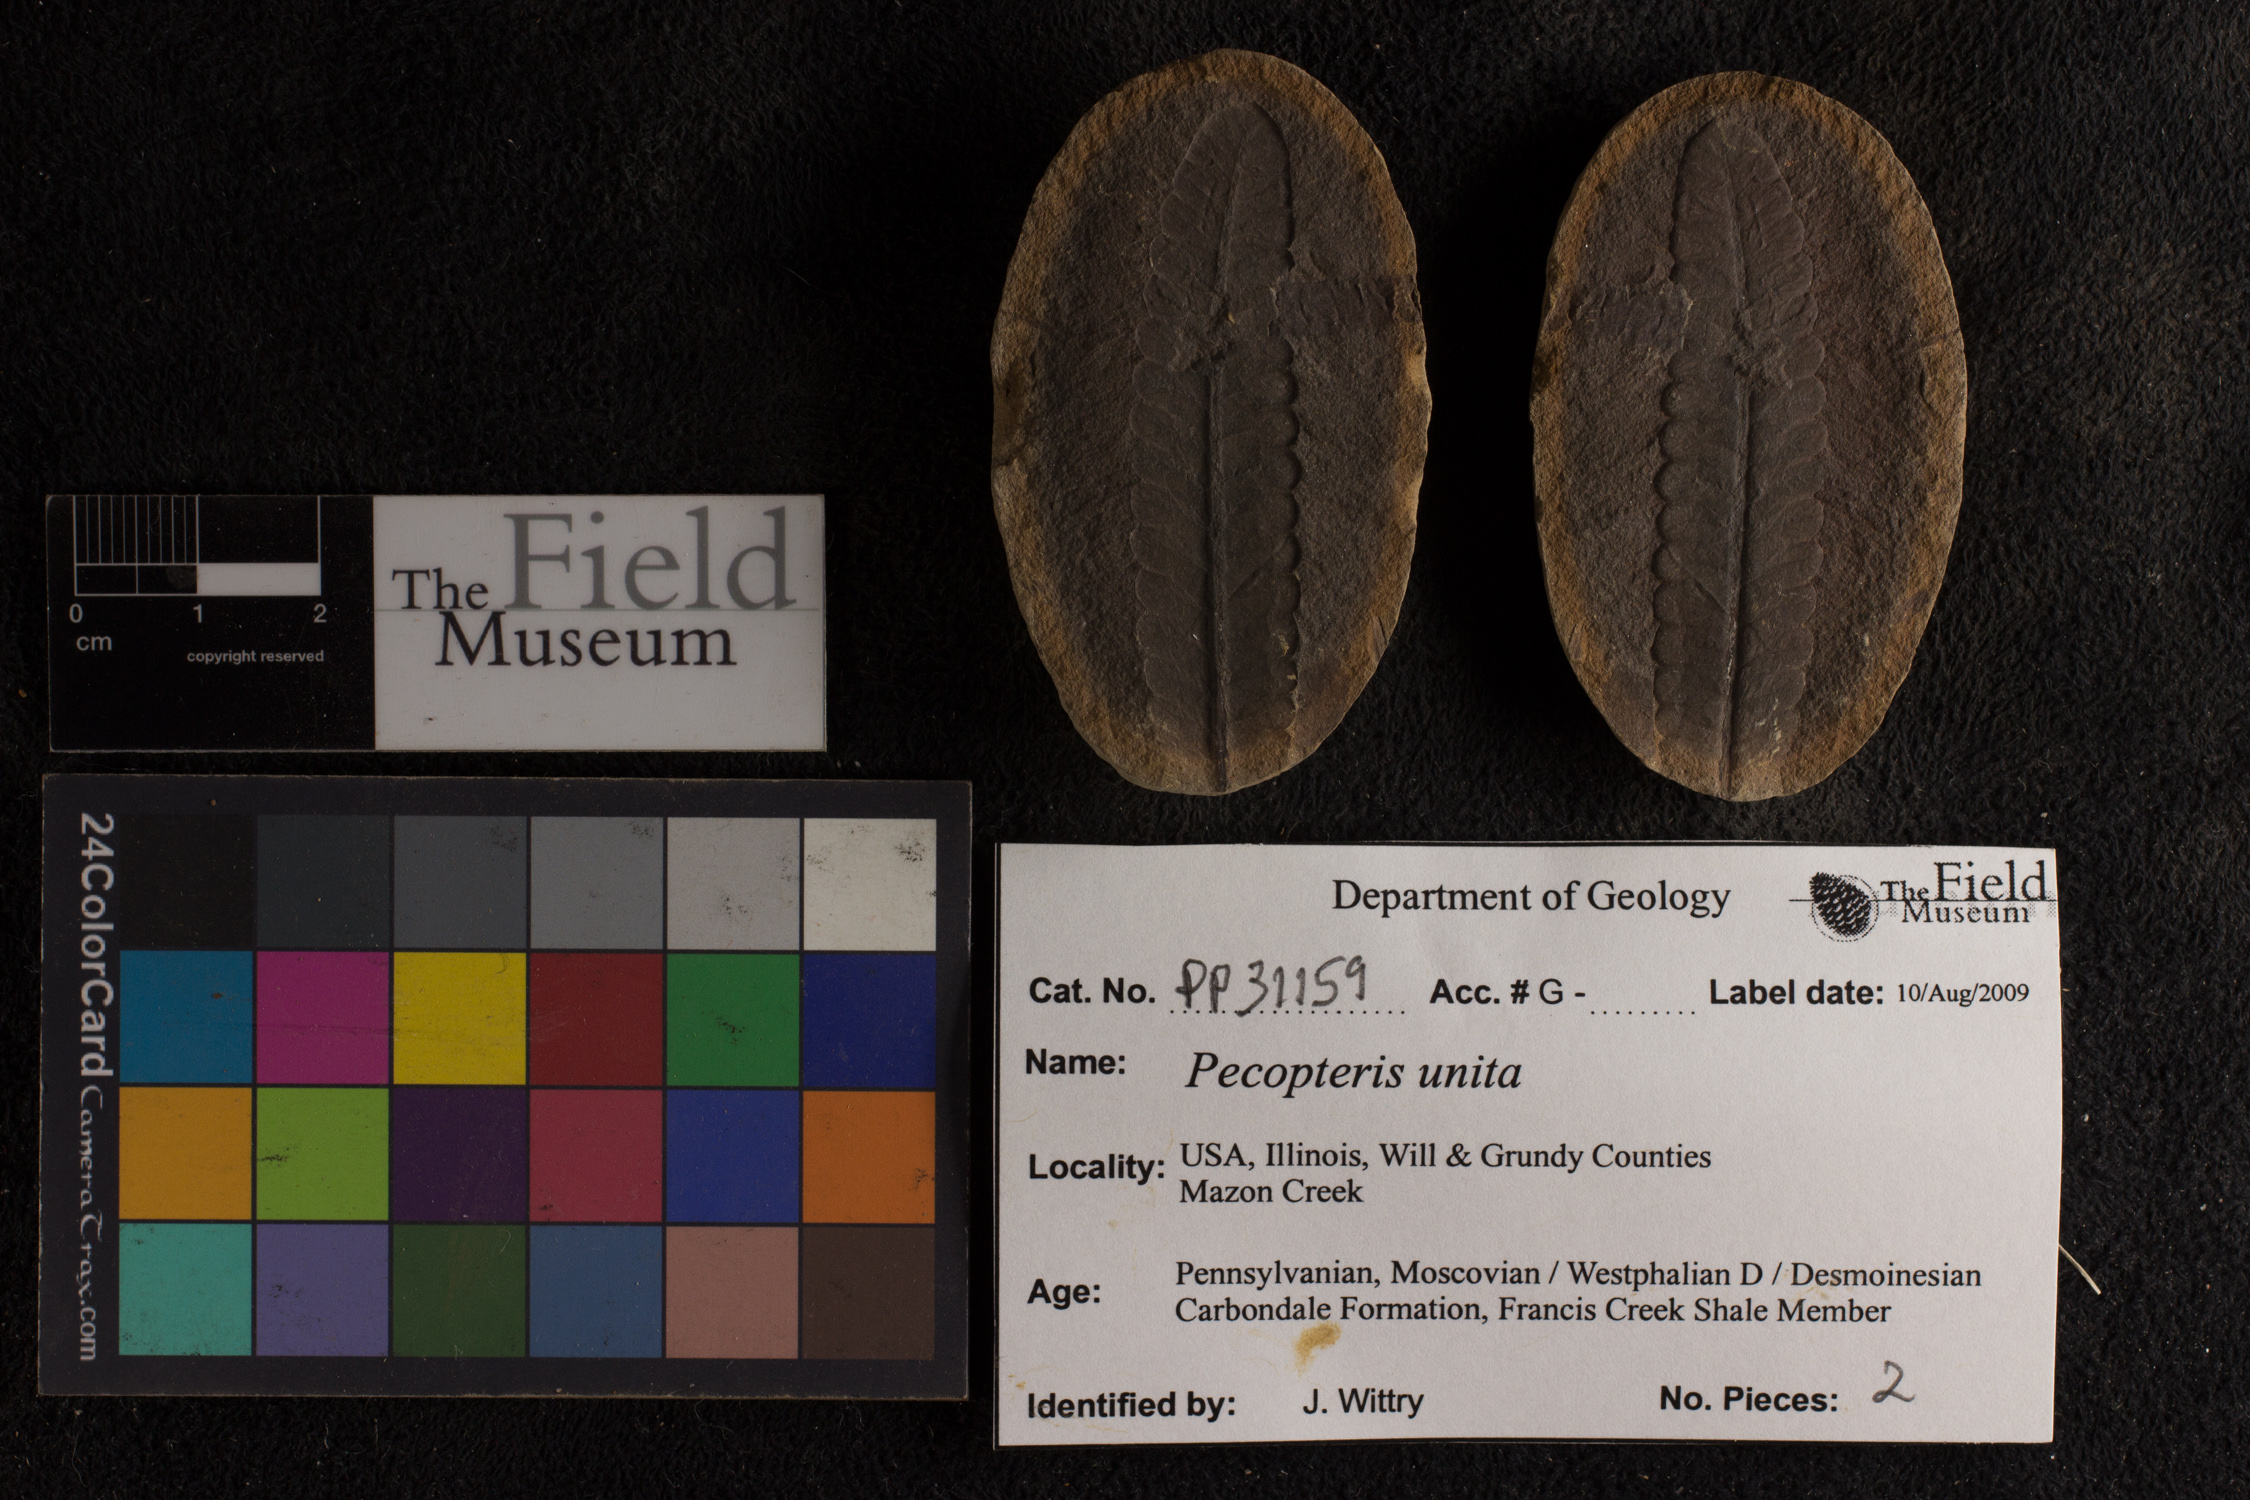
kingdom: Plantae
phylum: Tracheophyta
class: Polypodiopsida
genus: Diplazites
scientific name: Diplazites
